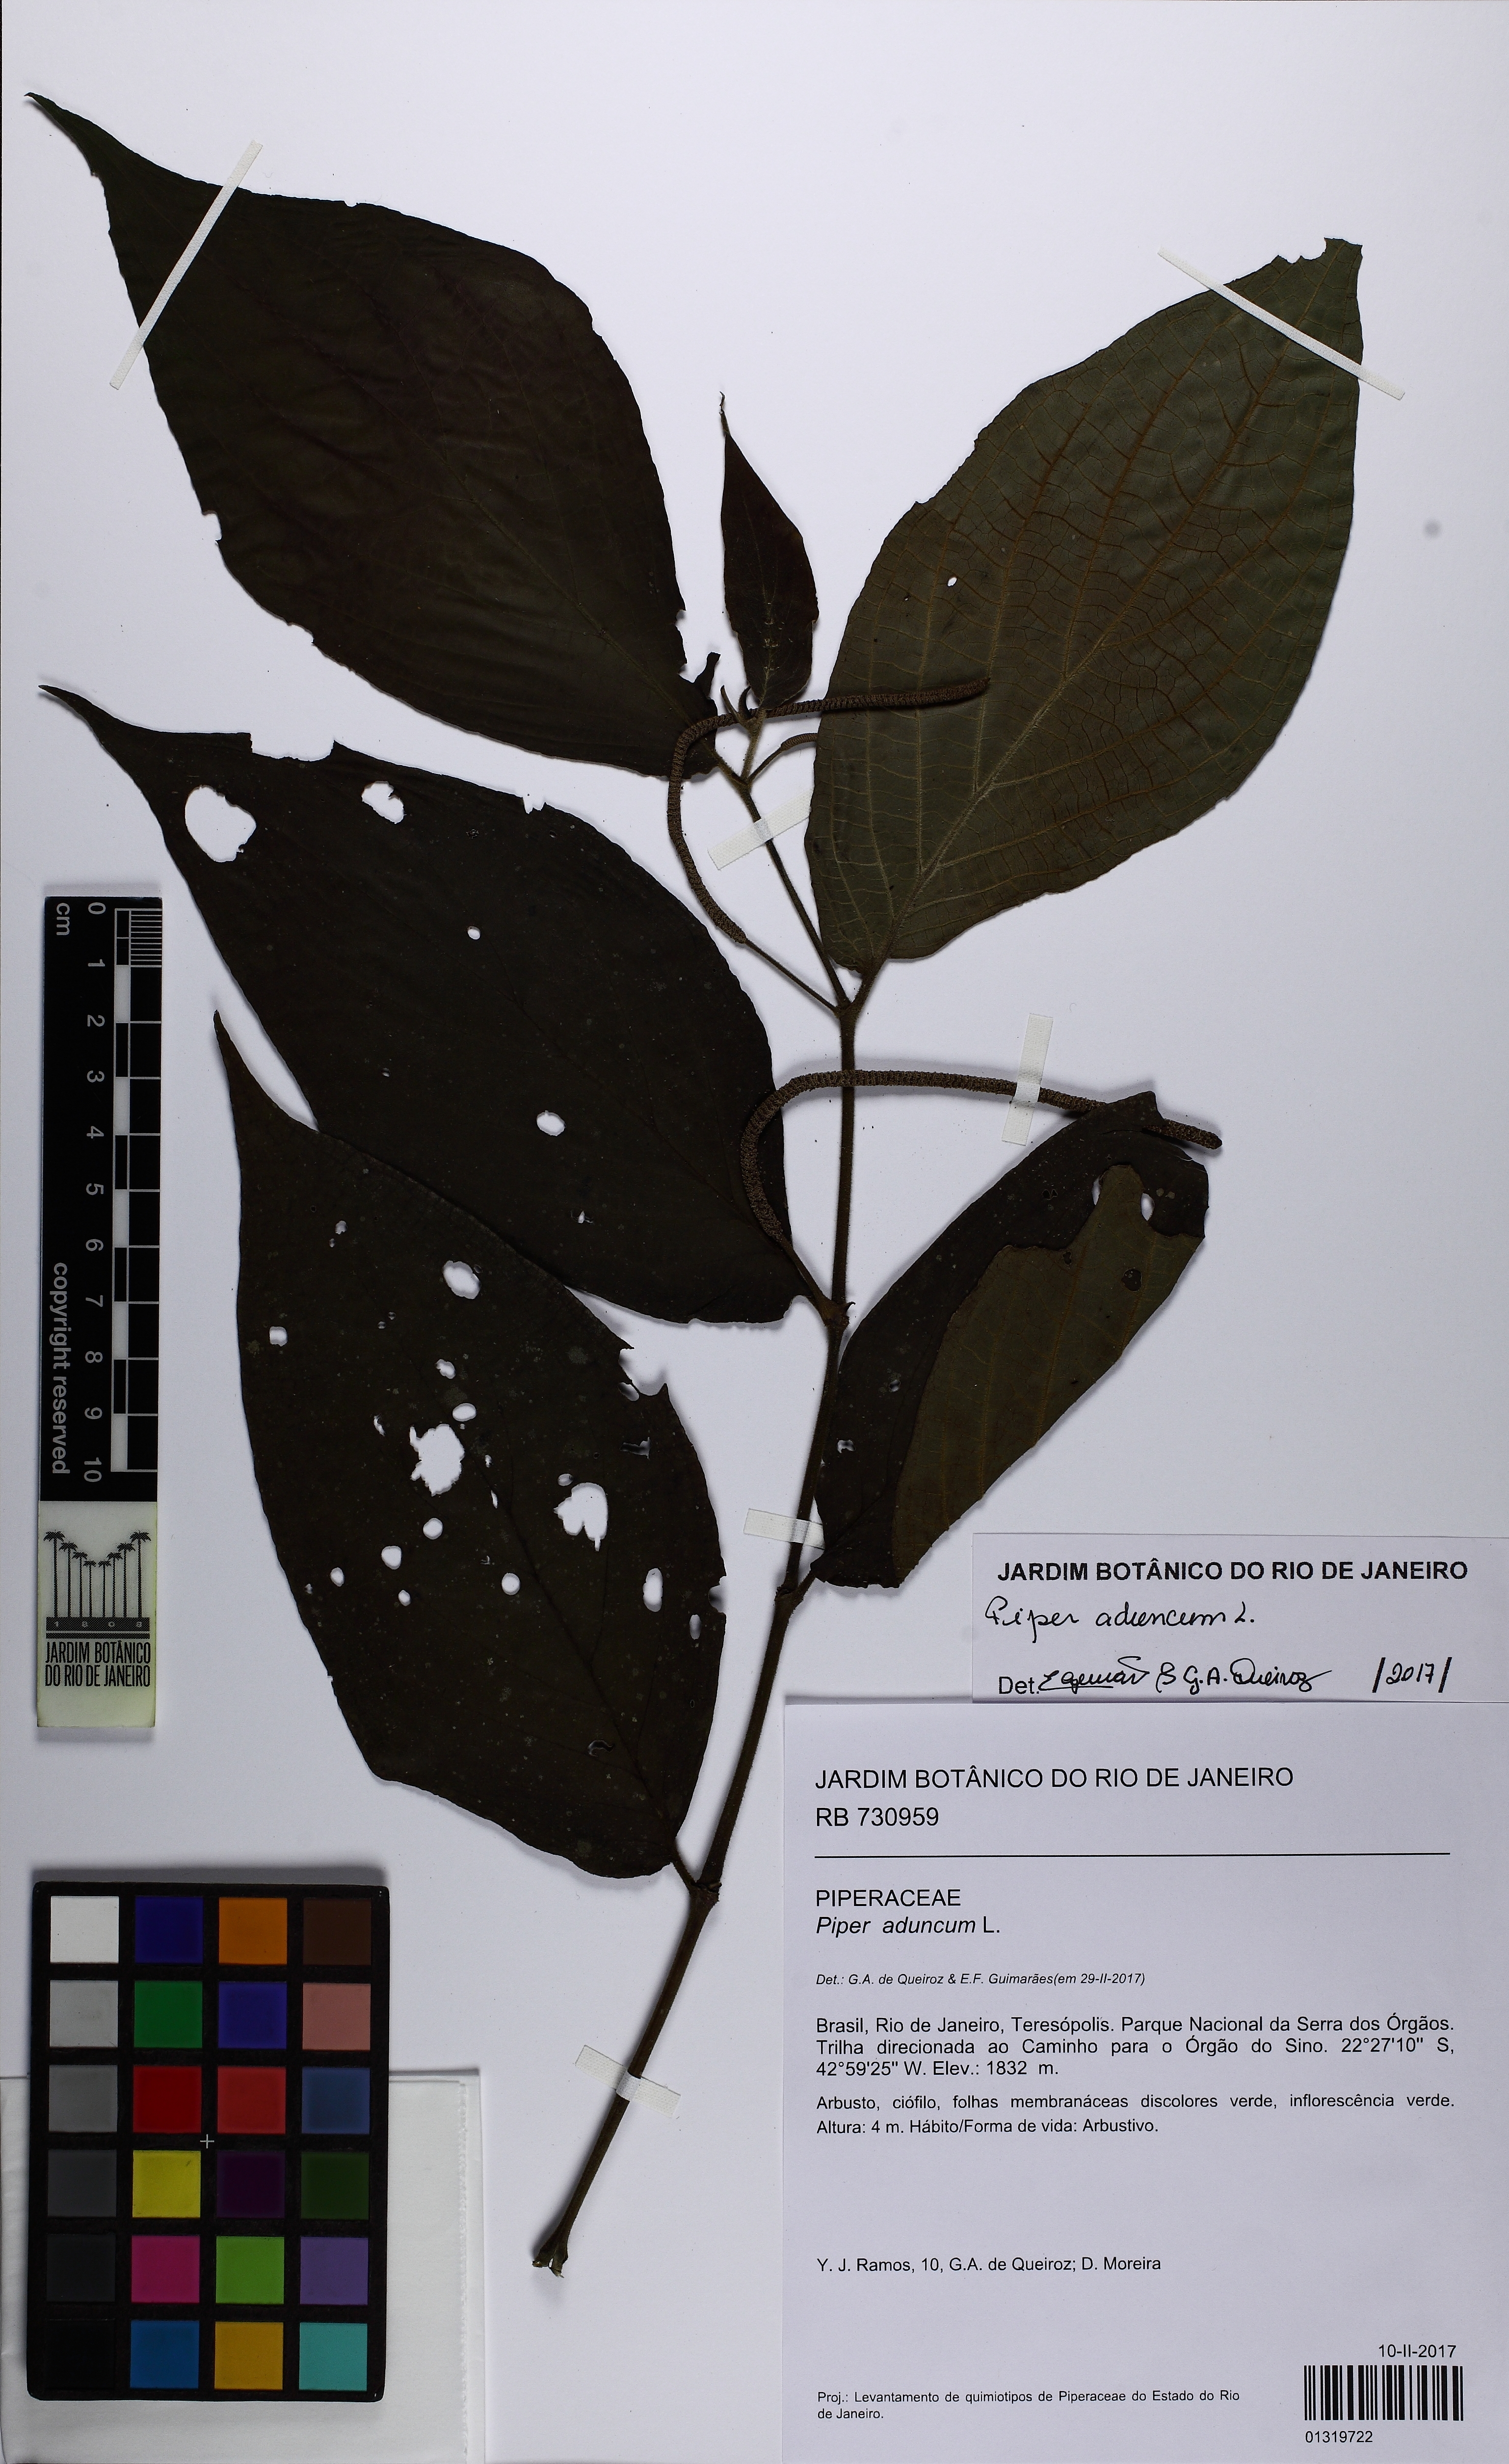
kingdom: Plantae
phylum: Tracheophyta
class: Magnoliopsida
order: Piperales
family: Piperaceae
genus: Piper
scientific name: Piper aduncum
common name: Spiked pepper
